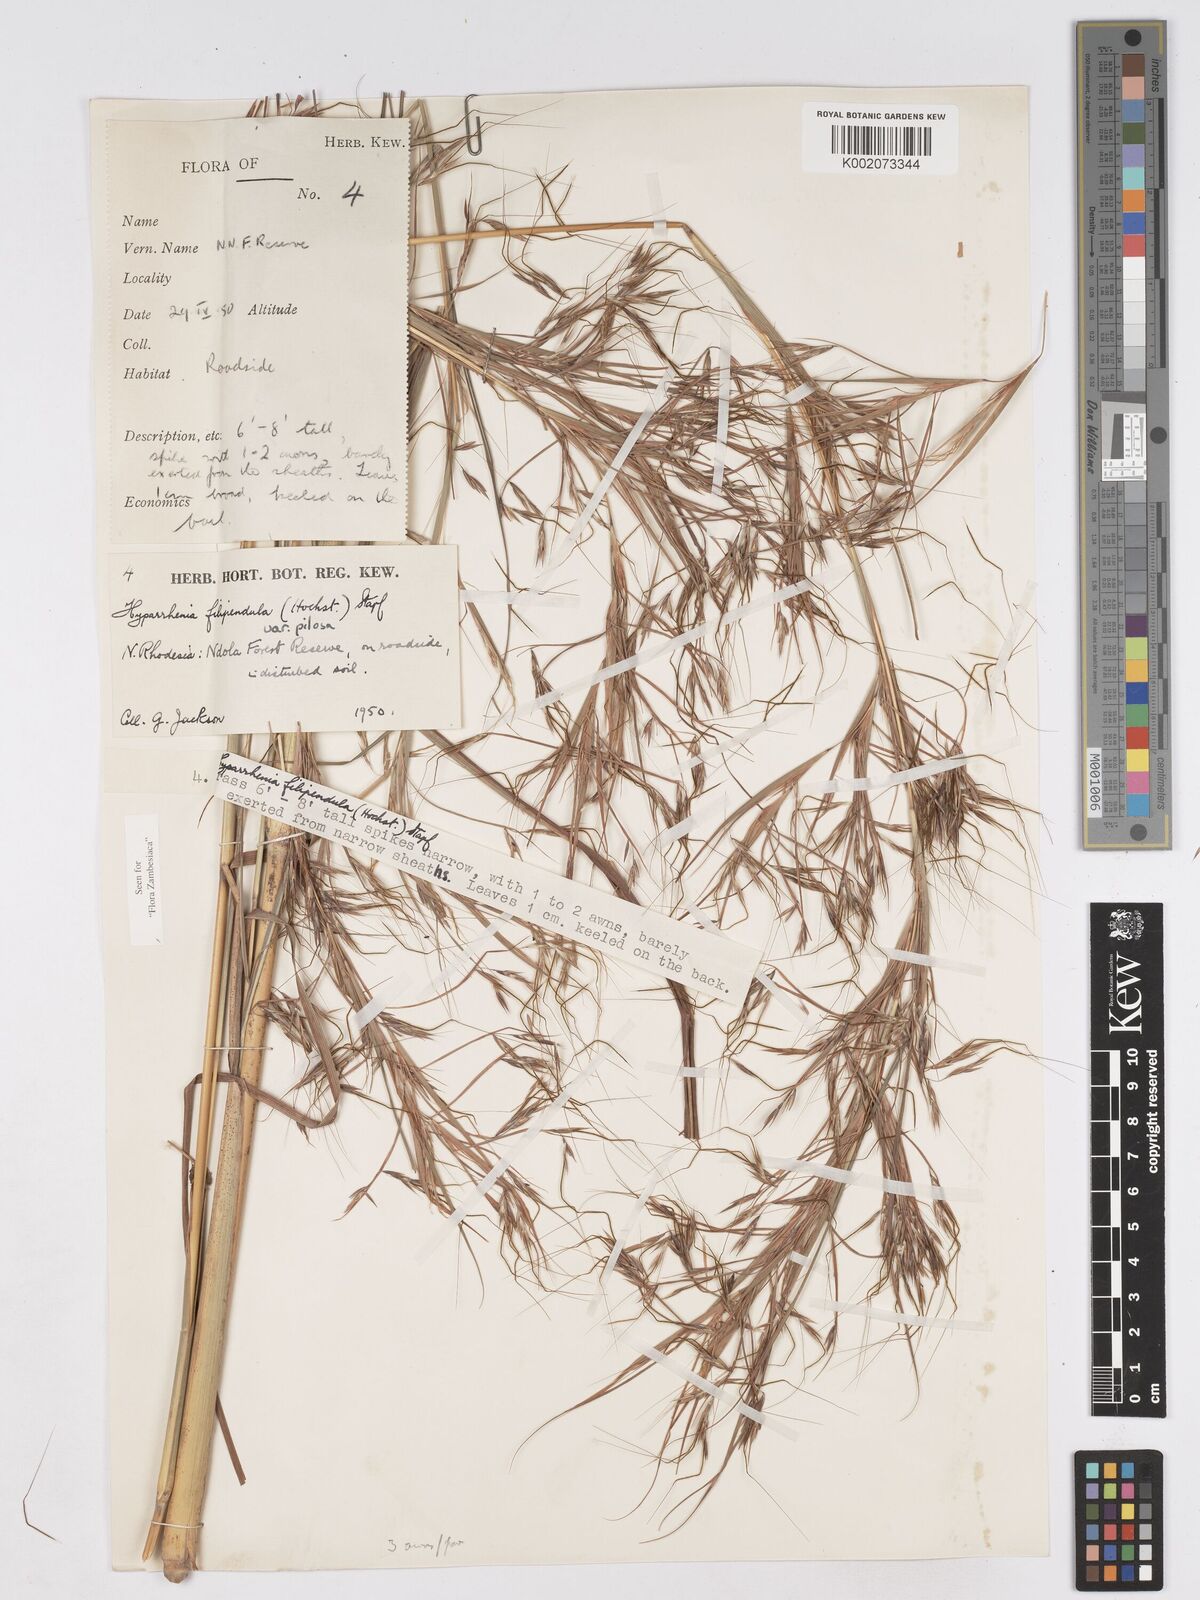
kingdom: Plantae
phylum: Tracheophyta
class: Liliopsida
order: Poales
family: Poaceae
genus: Hyparrhenia
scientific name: Hyparrhenia filipendula
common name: Tambookie grass
